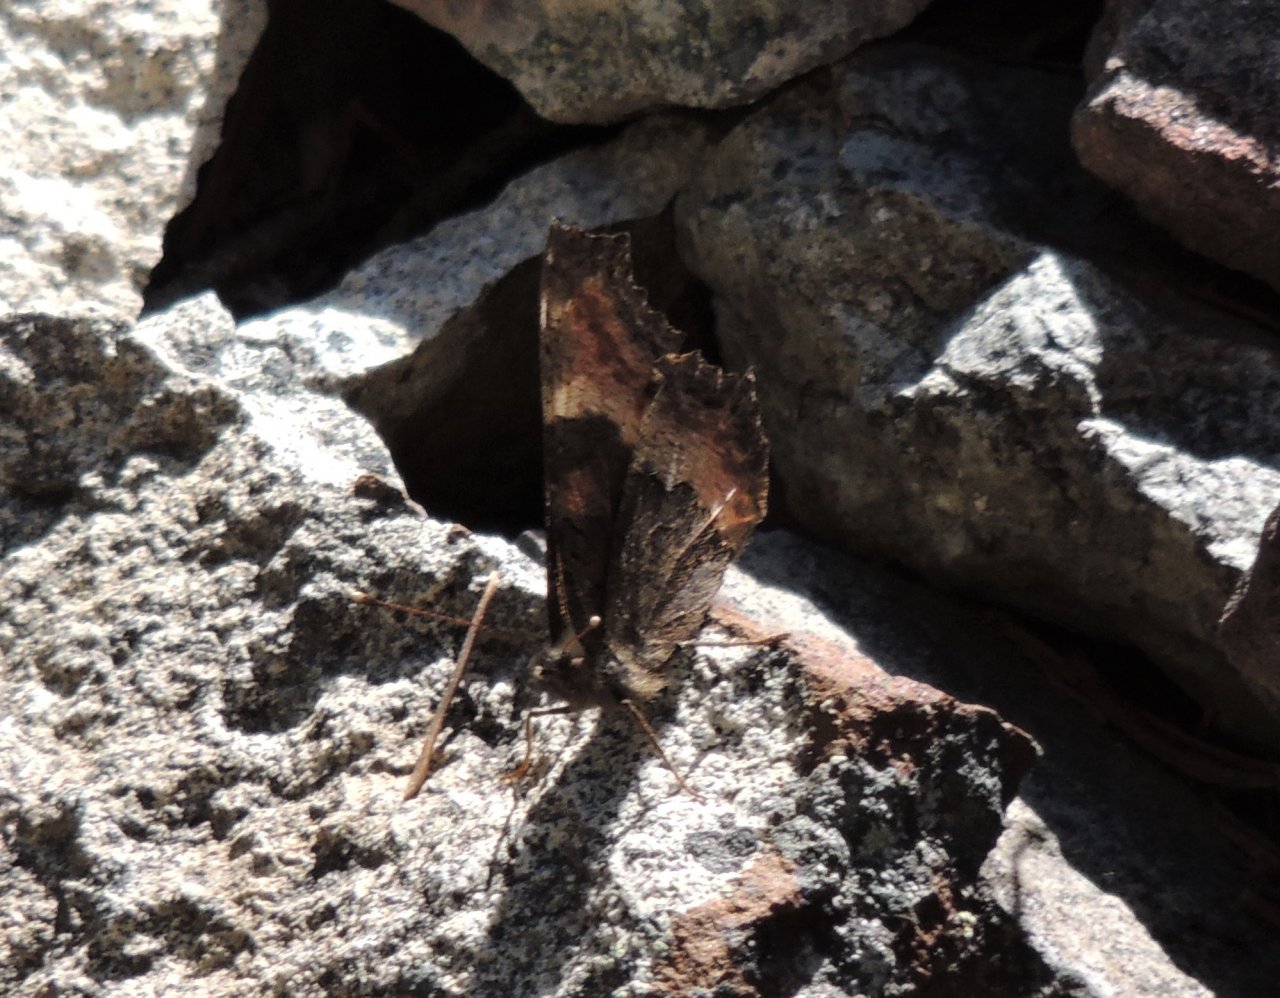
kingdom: Animalia
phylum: Arthropoda
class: Insecta
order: Lepidoptera
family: Nymphalidae
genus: Aglais
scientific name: Aglais milberti
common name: Milbert's Tortoiseshell
